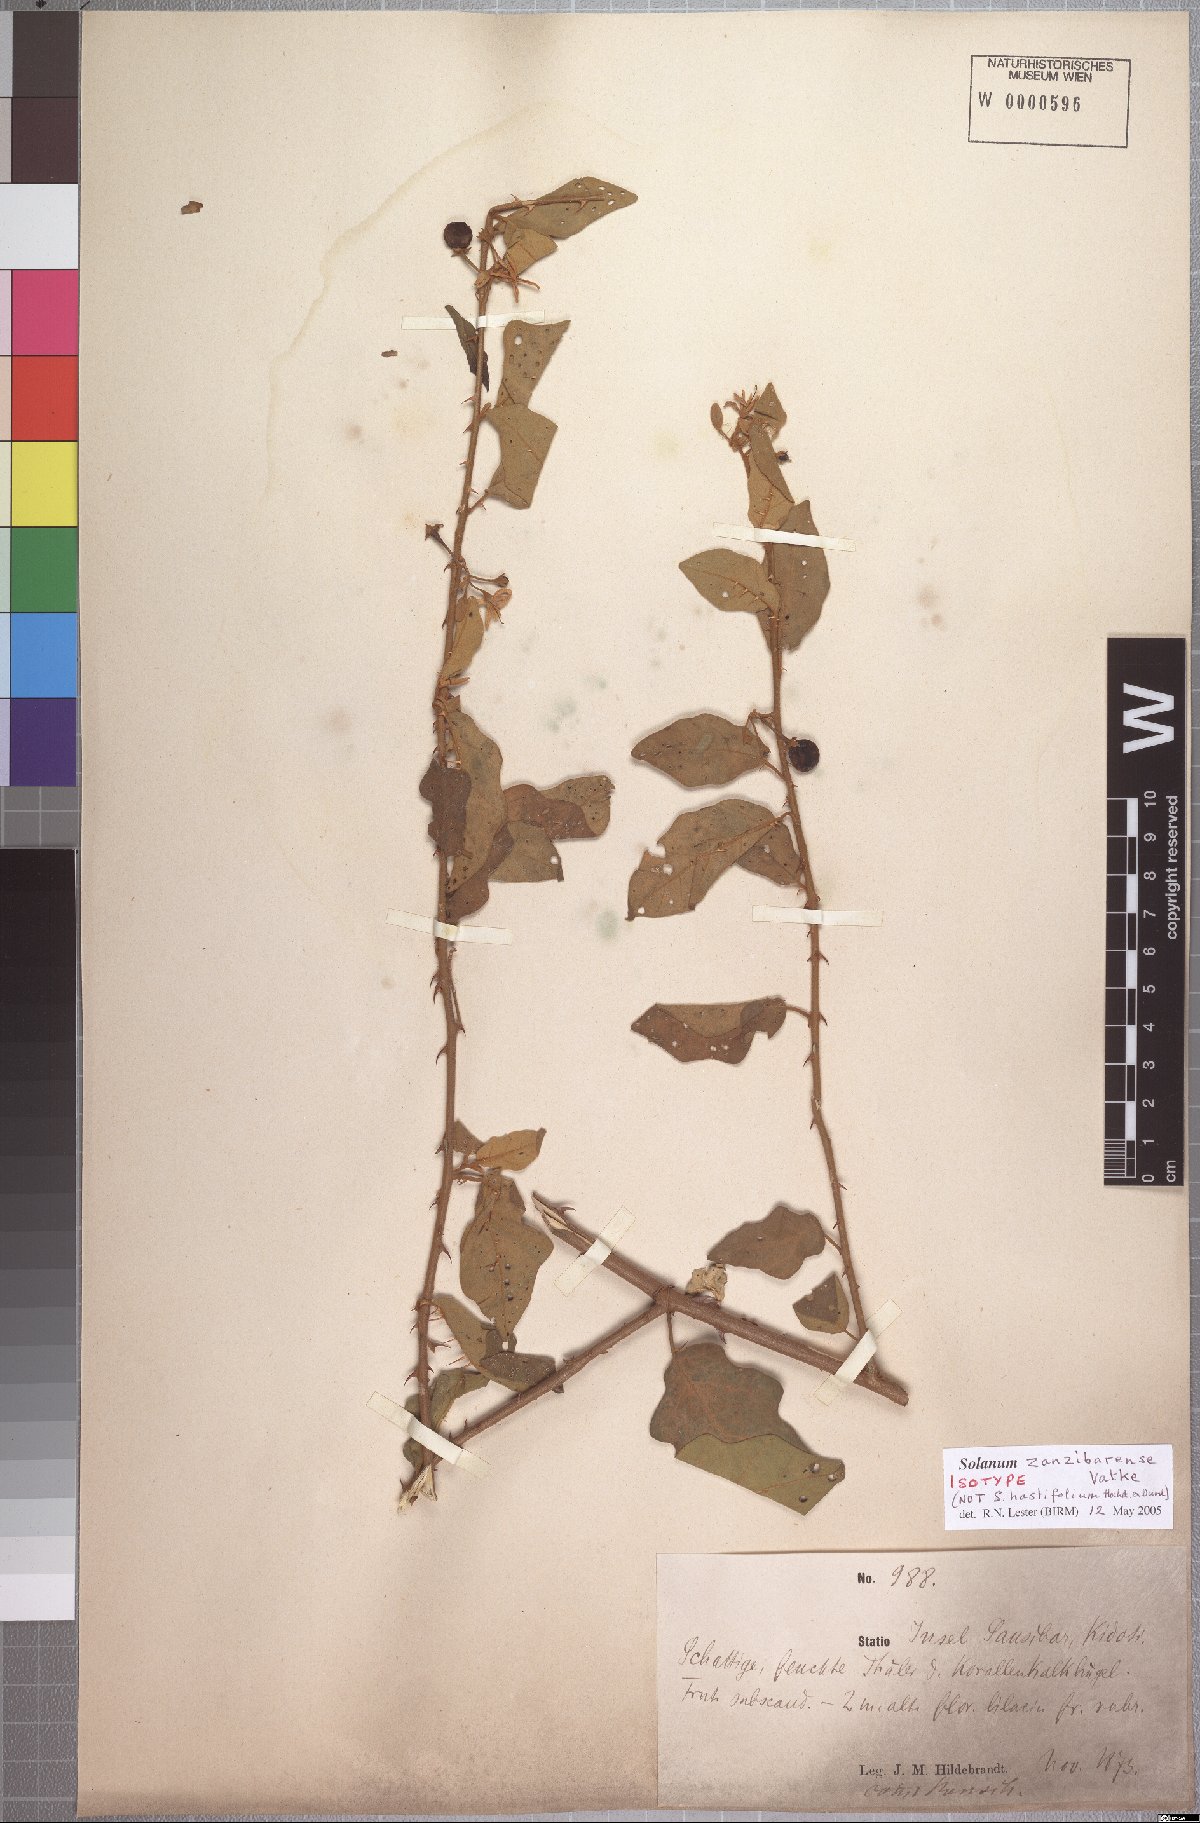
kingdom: Plantae
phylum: Tracheophyta
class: Magnoliopsida
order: Solanales
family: Solanaceae
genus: Solanum
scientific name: Solanum zanzibarense
